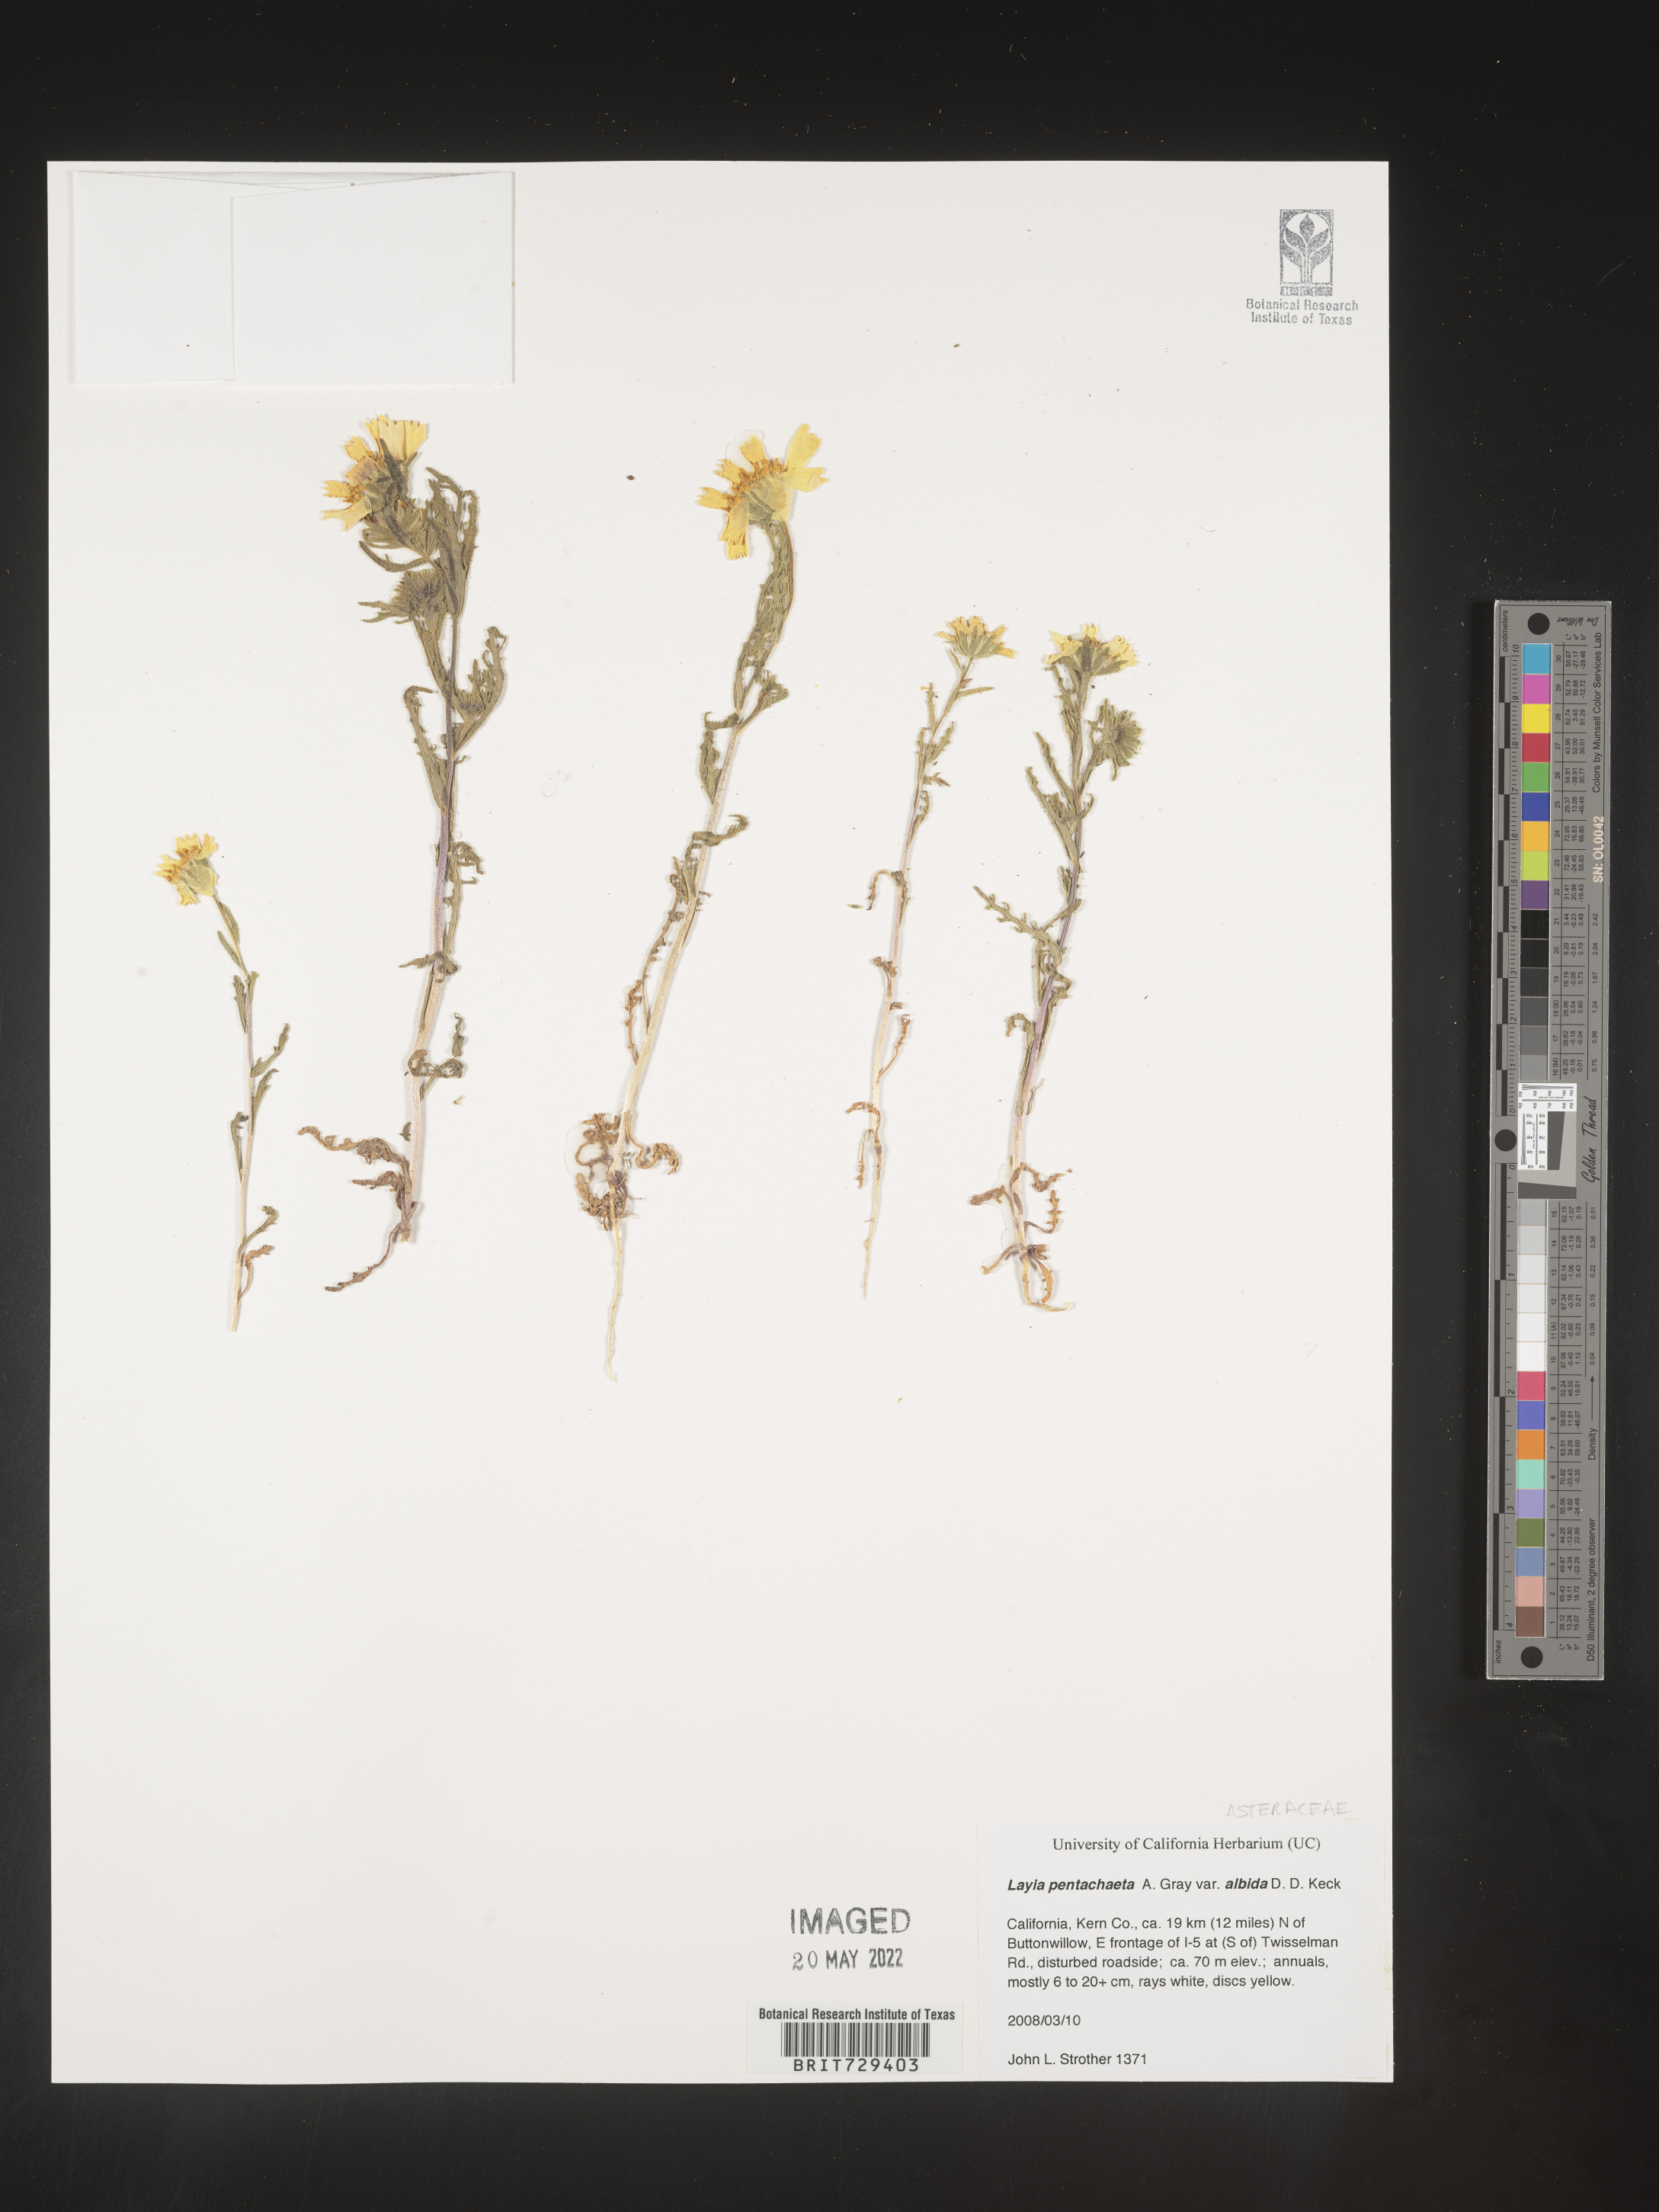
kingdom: Plantae
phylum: Tracheophyta
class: Magnoliopsida
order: Asterales
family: Asteraceae
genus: Layia
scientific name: Layia
